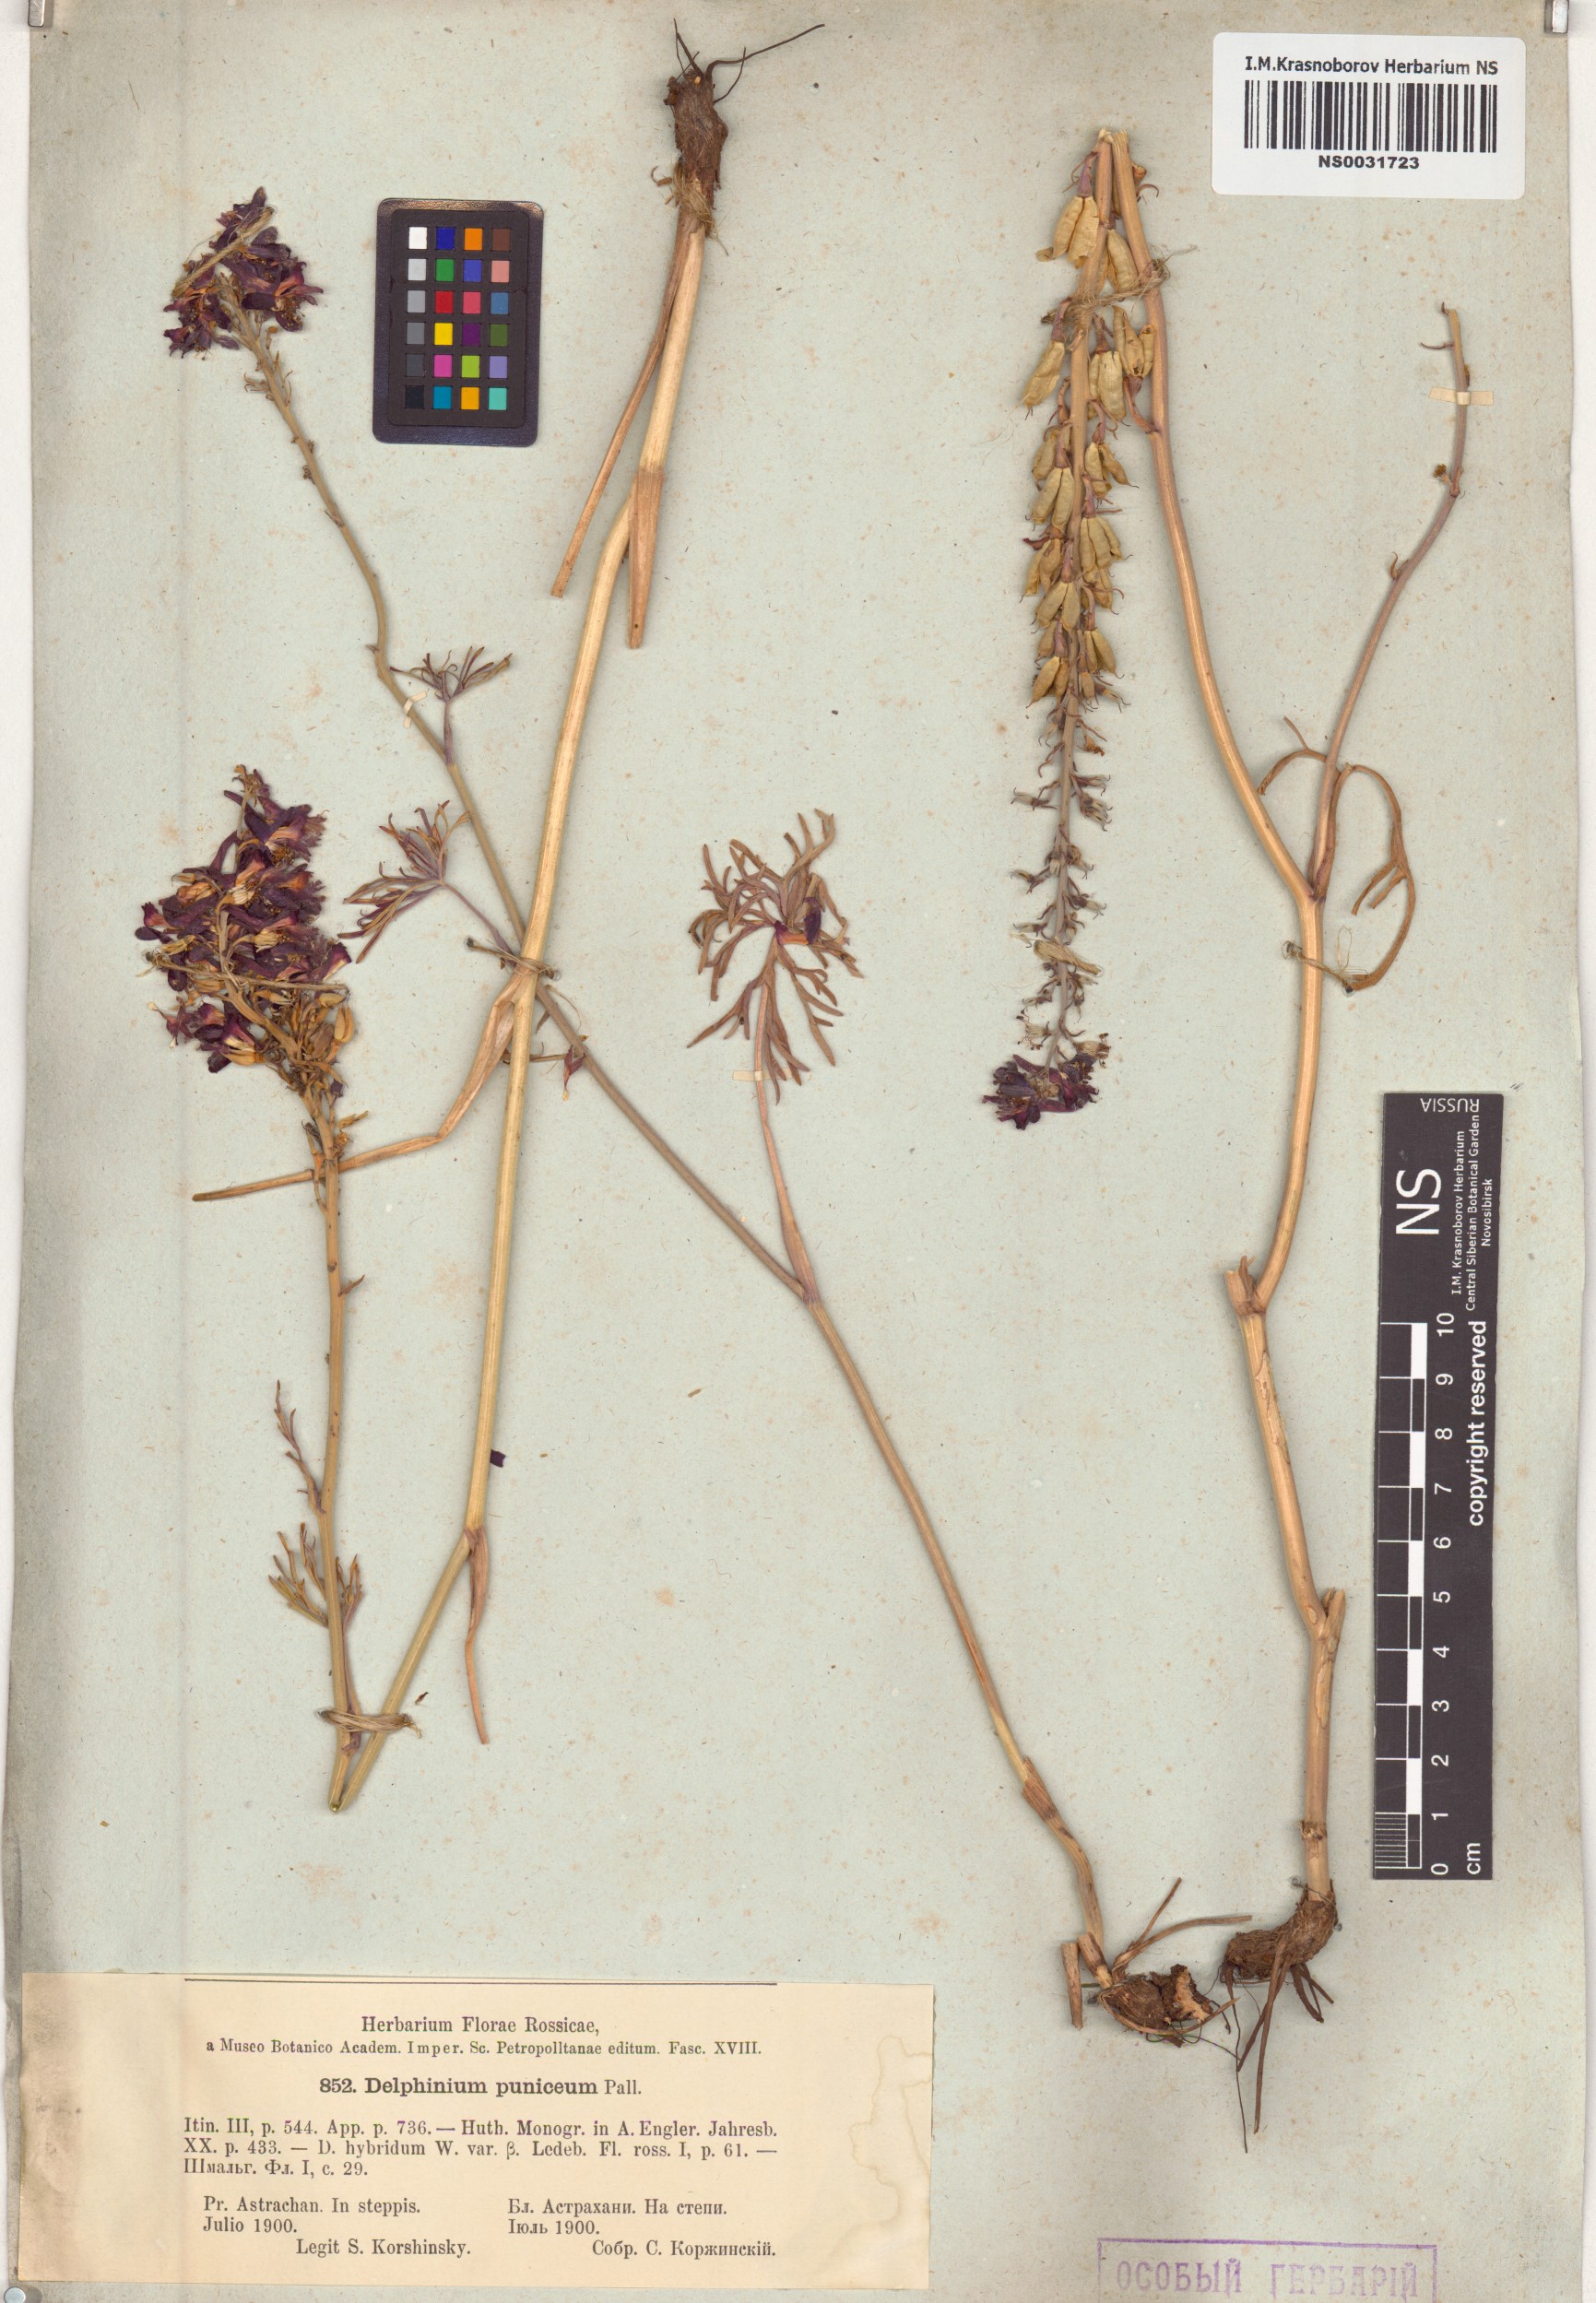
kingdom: Plantae
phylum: Tracheophyta
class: Magnoliopsida
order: Ranunculales
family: Ranunculaceae
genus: Delphinium
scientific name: Delphinium puniceum
